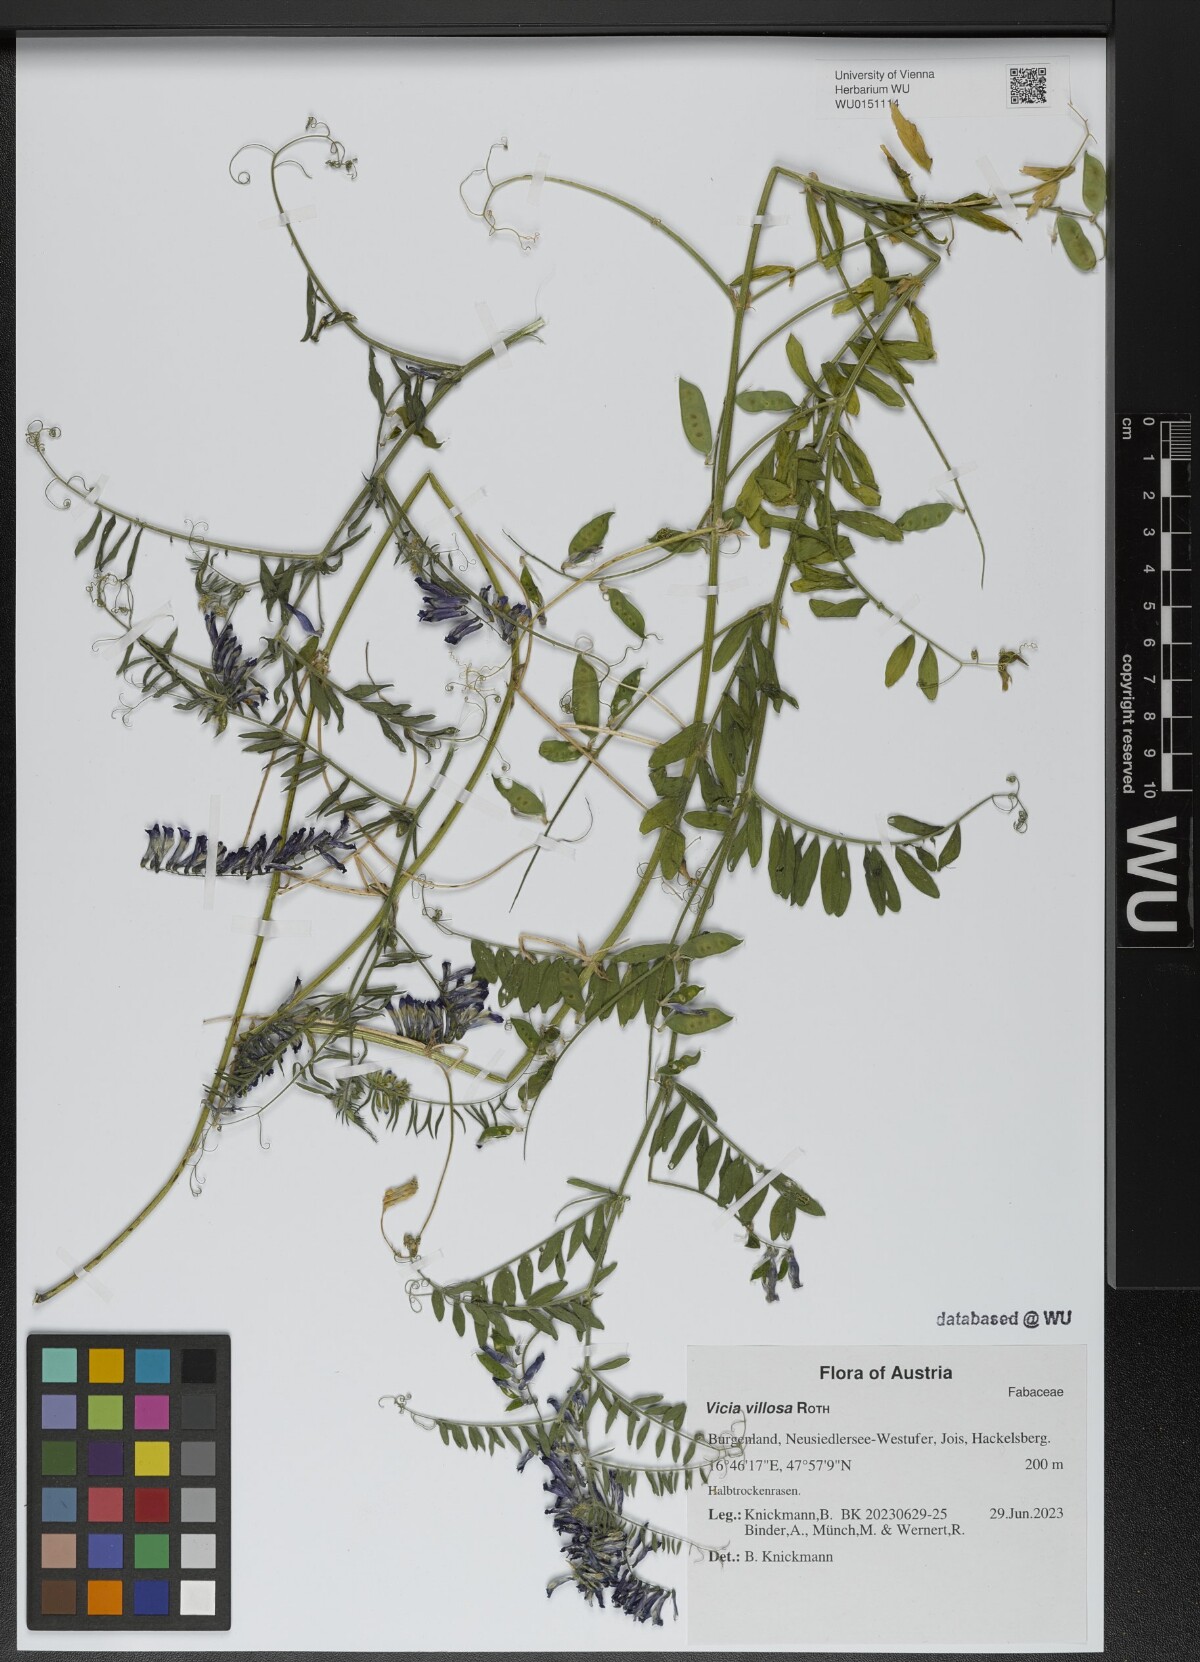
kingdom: Plantae
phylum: Tracheophyta
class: Magnoliopsida
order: Fabales
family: Fabaceae
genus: Vicia
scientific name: Vicia villosa
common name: Fodder vetch
